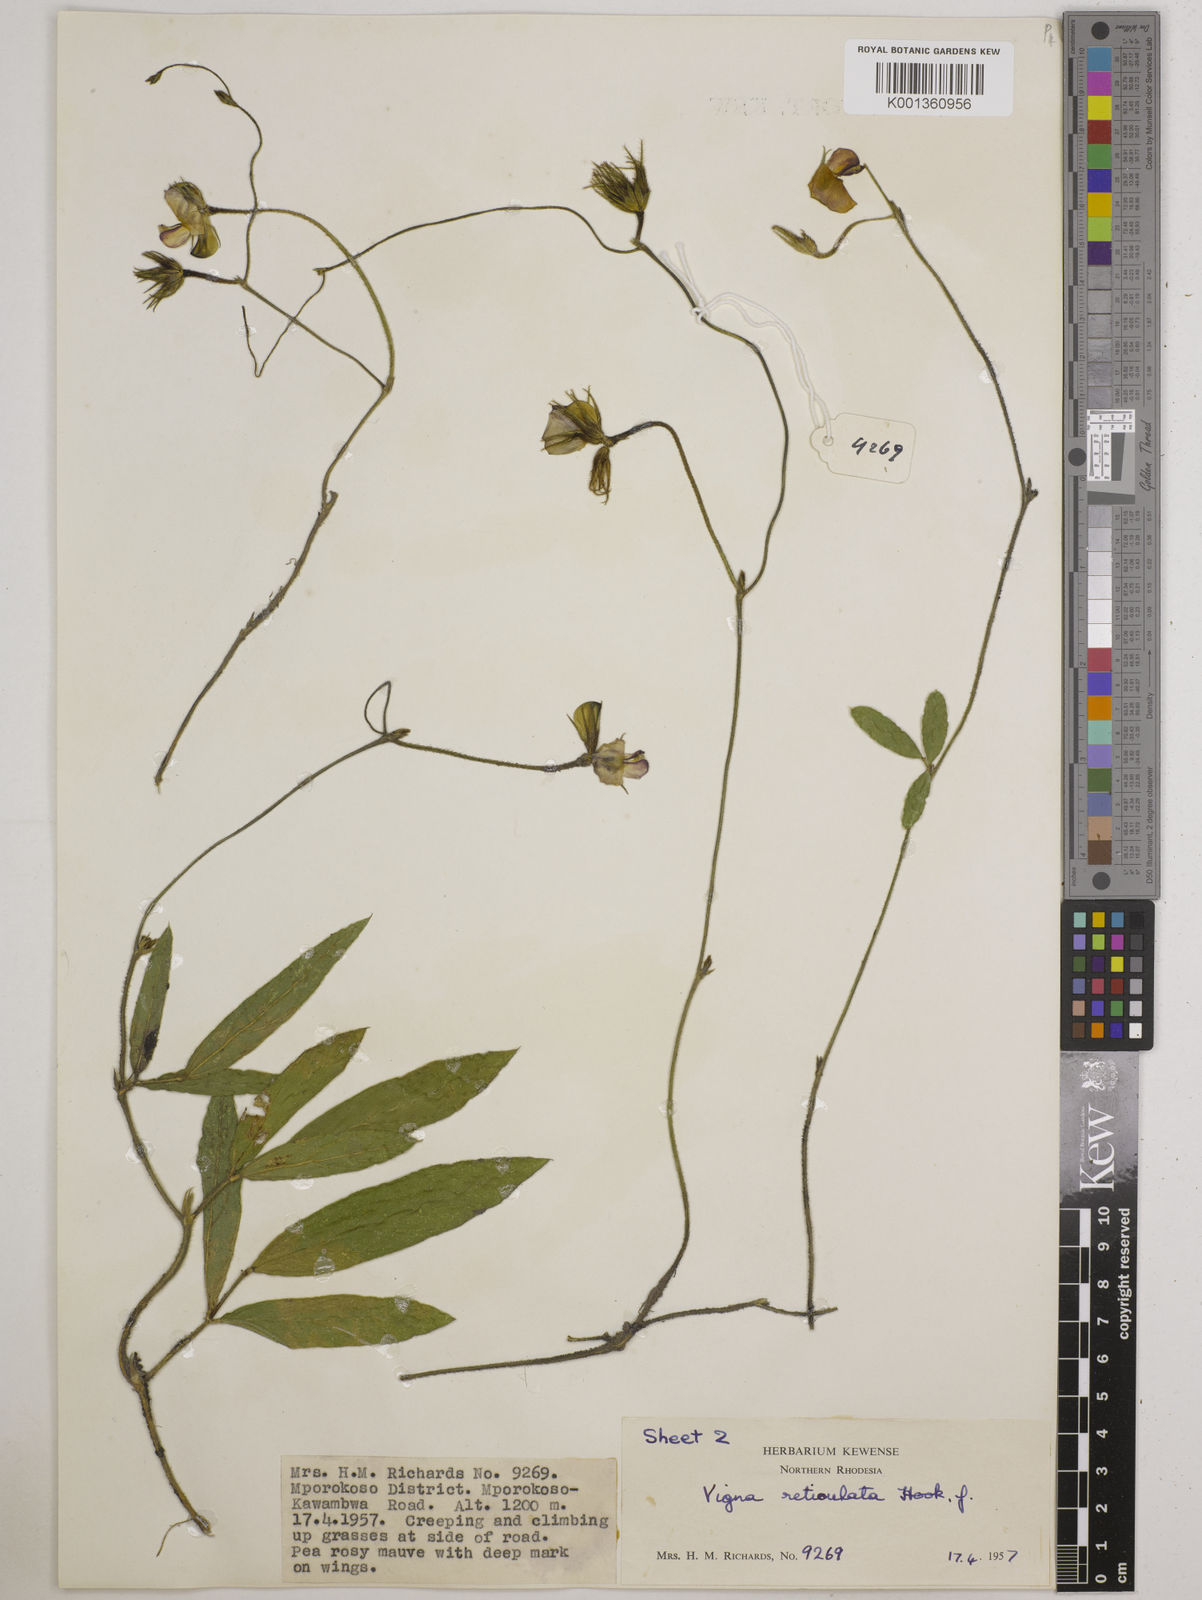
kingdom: Plantae
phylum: Tracheophyta
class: Magnoliopsida
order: Fabales
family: Fabaceae
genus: Vigna
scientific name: Vigna reticulata
